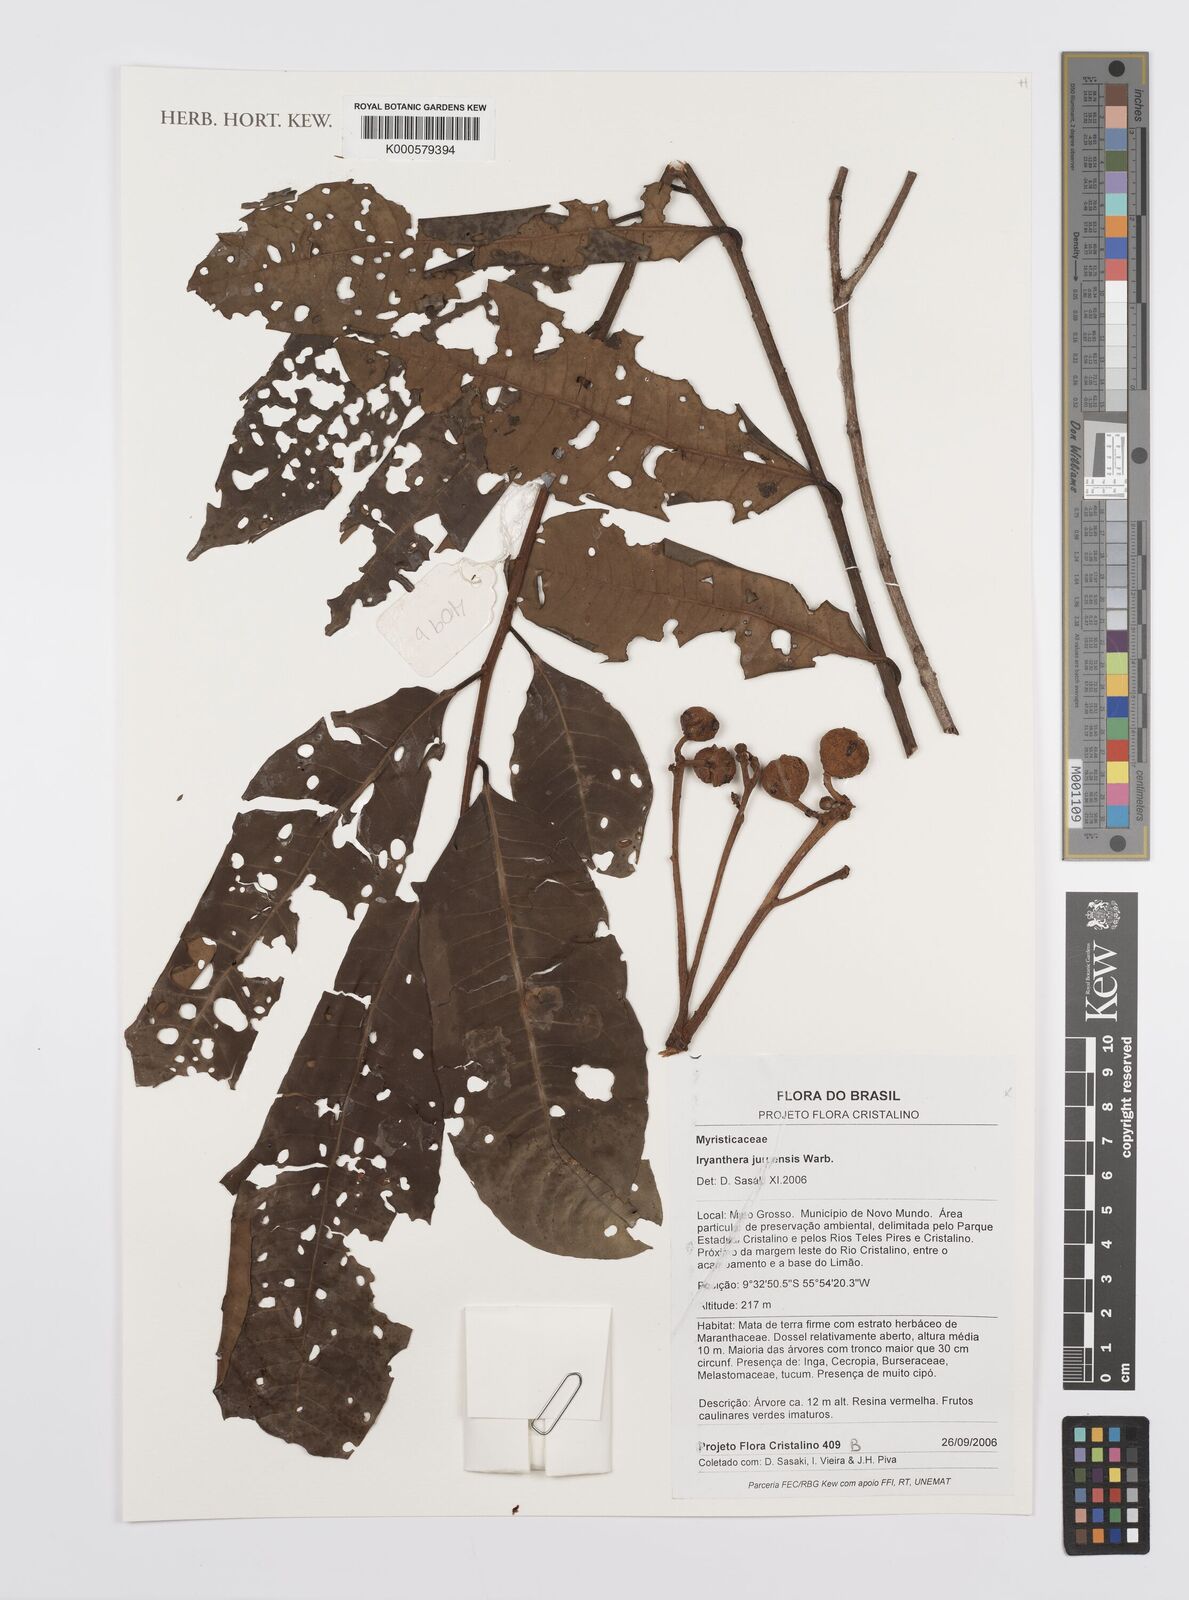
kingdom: Plantae
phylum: Tracheophyta
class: Magnoliopsida
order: Magnoliales
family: Myristicaceae
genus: Iryanthera
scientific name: Iryanthera juruensis
